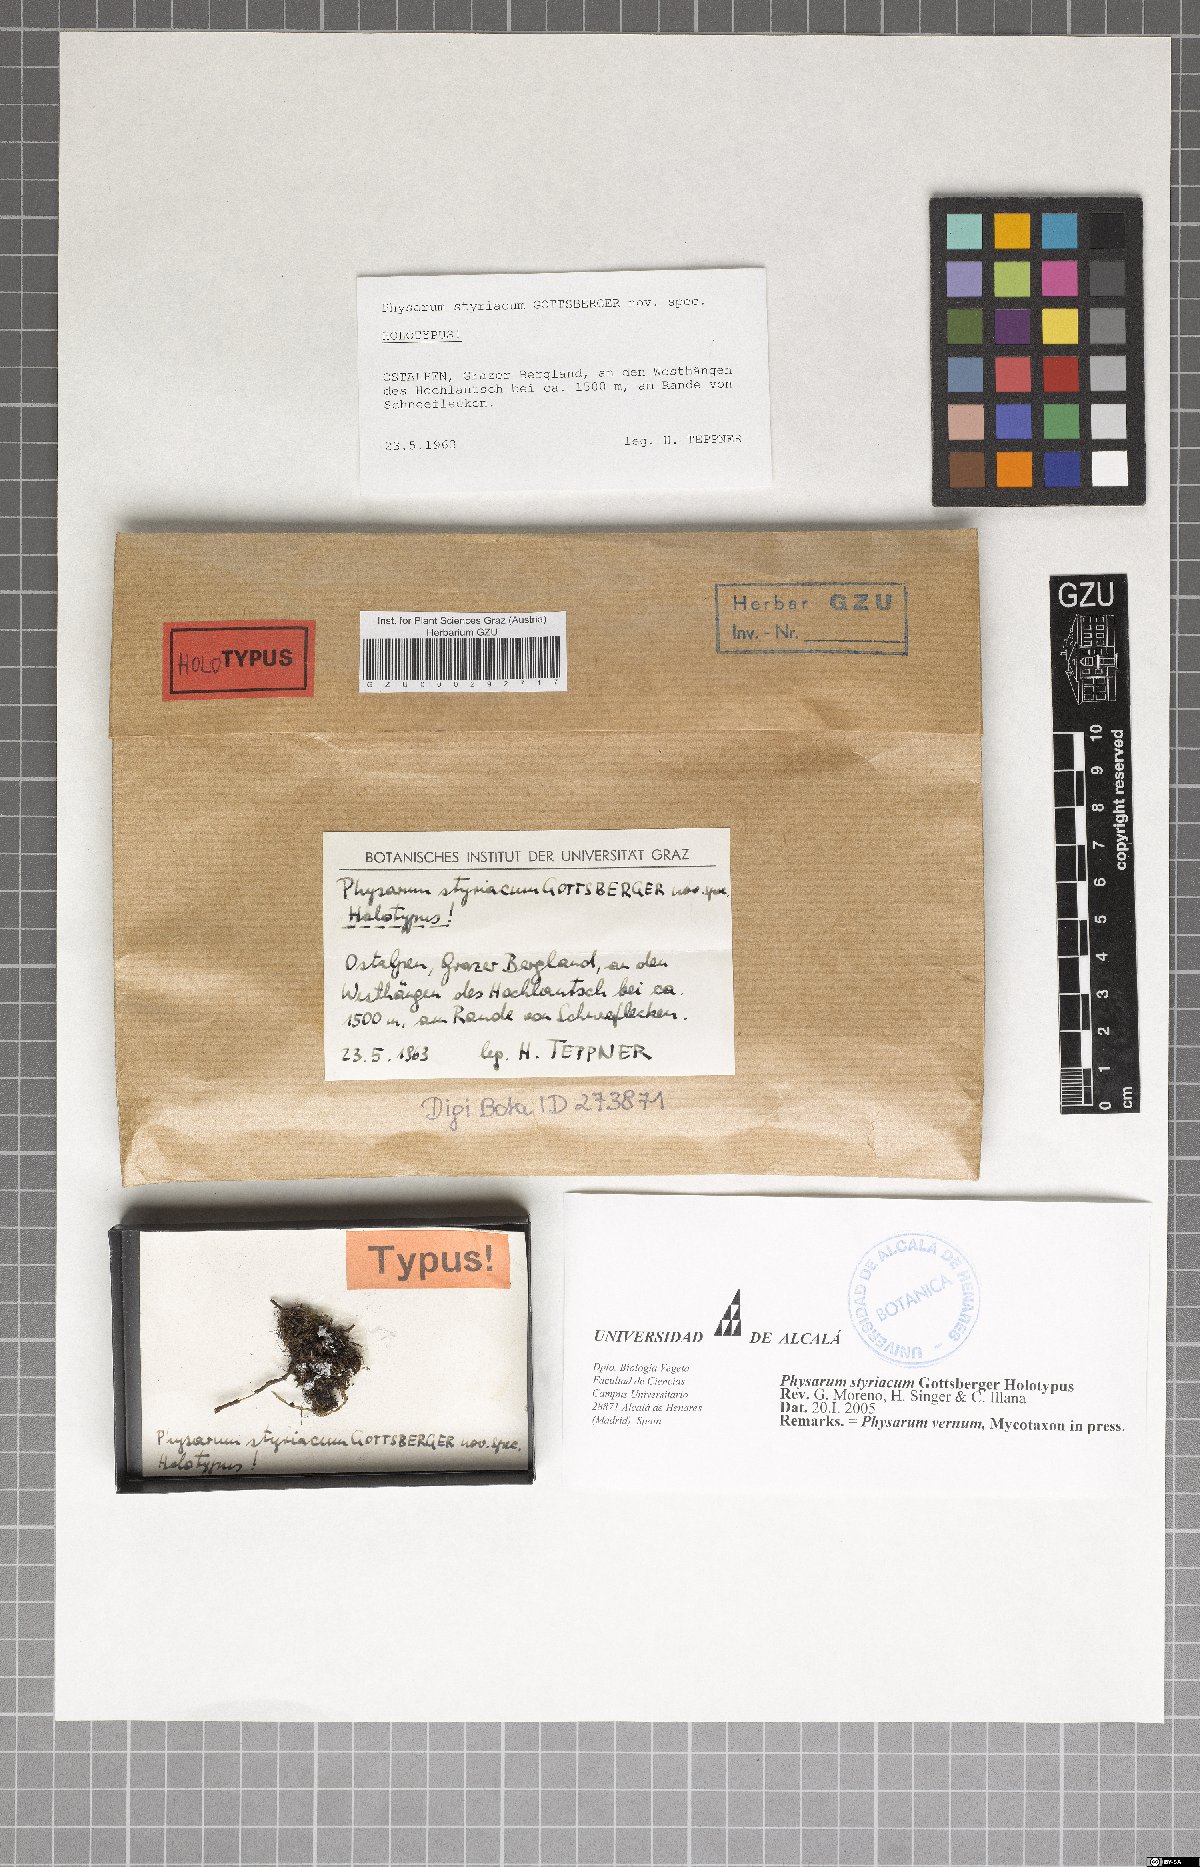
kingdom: Protozoa
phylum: Mycetozoa
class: Myxomycetes
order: Physarales
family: Physaraceae
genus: Physarum
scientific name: Physarum vernum
